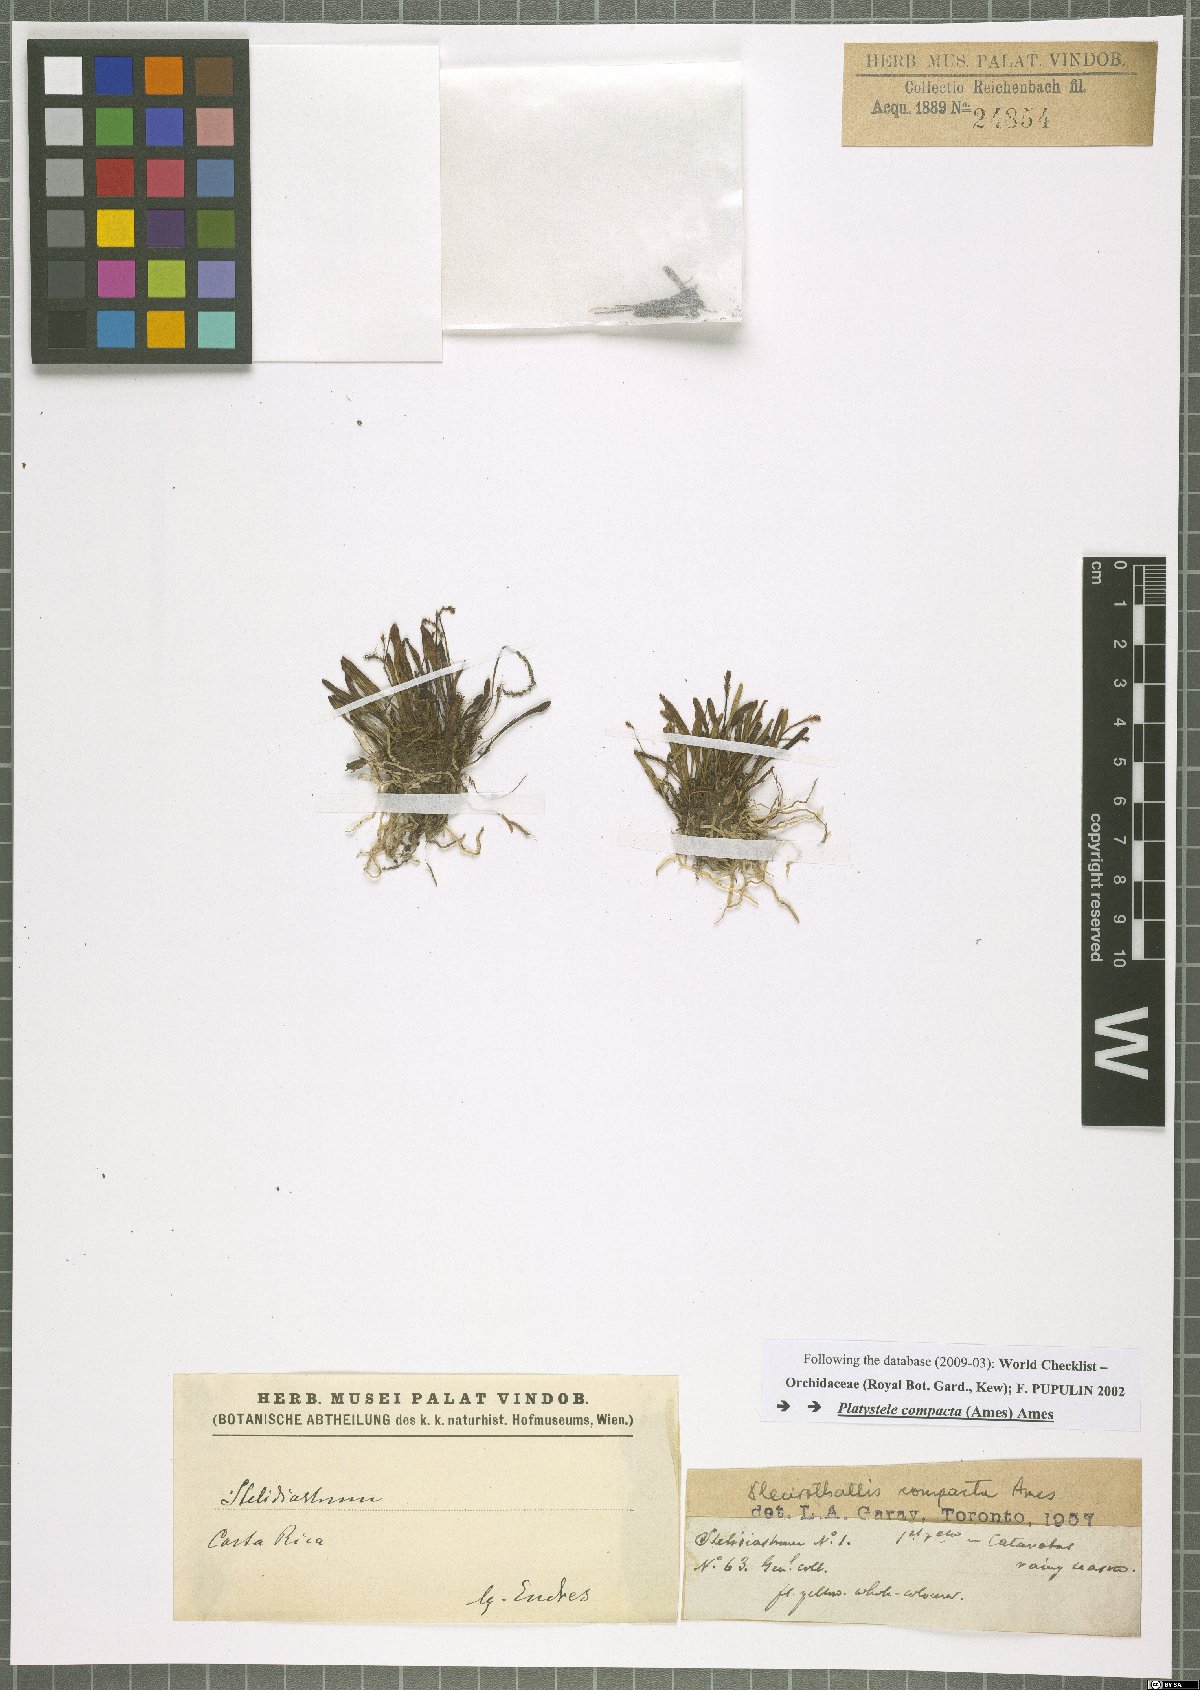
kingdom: Plantae
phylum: Tracheophyta
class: Liliopsida
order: Asparagales
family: Orchidaceae
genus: Platystele
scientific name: Platystele compacta
